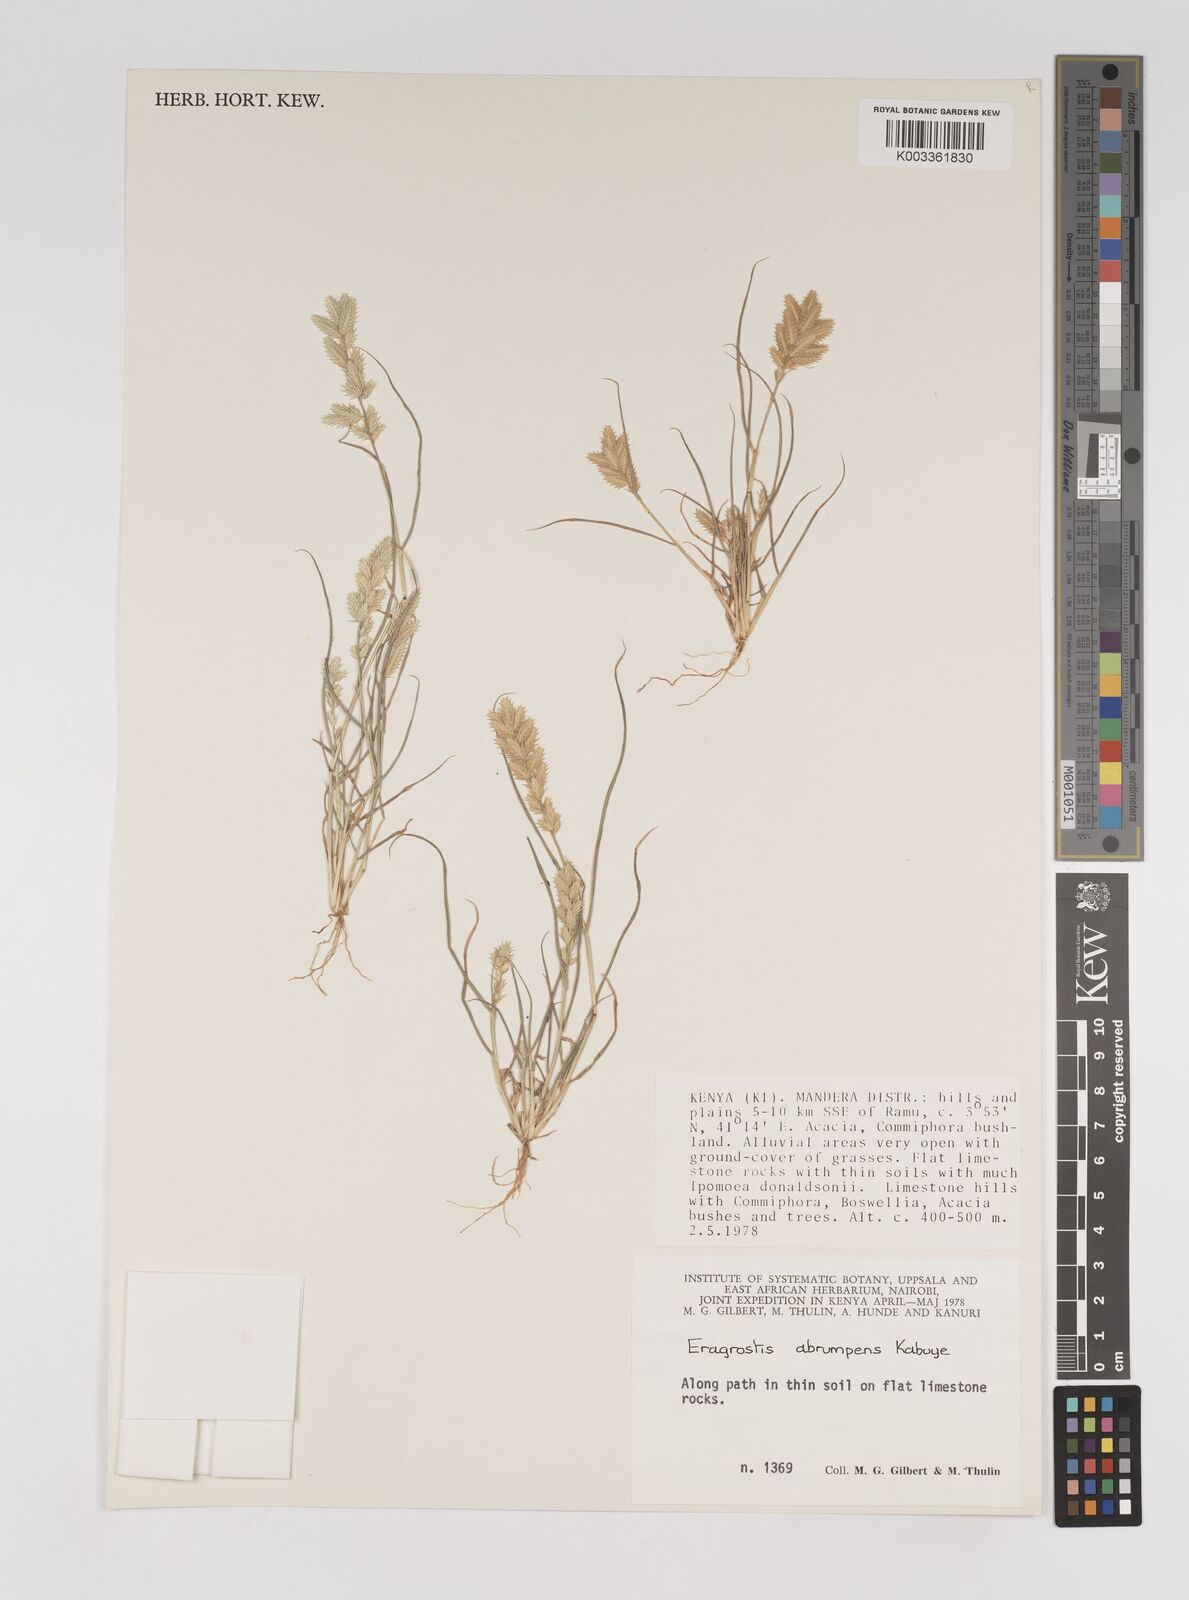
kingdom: Plantae
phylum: Tracheophyta
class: Liliopsida
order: Poales
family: Poaceae
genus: Eragrostis
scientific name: Eragrostis sennii
